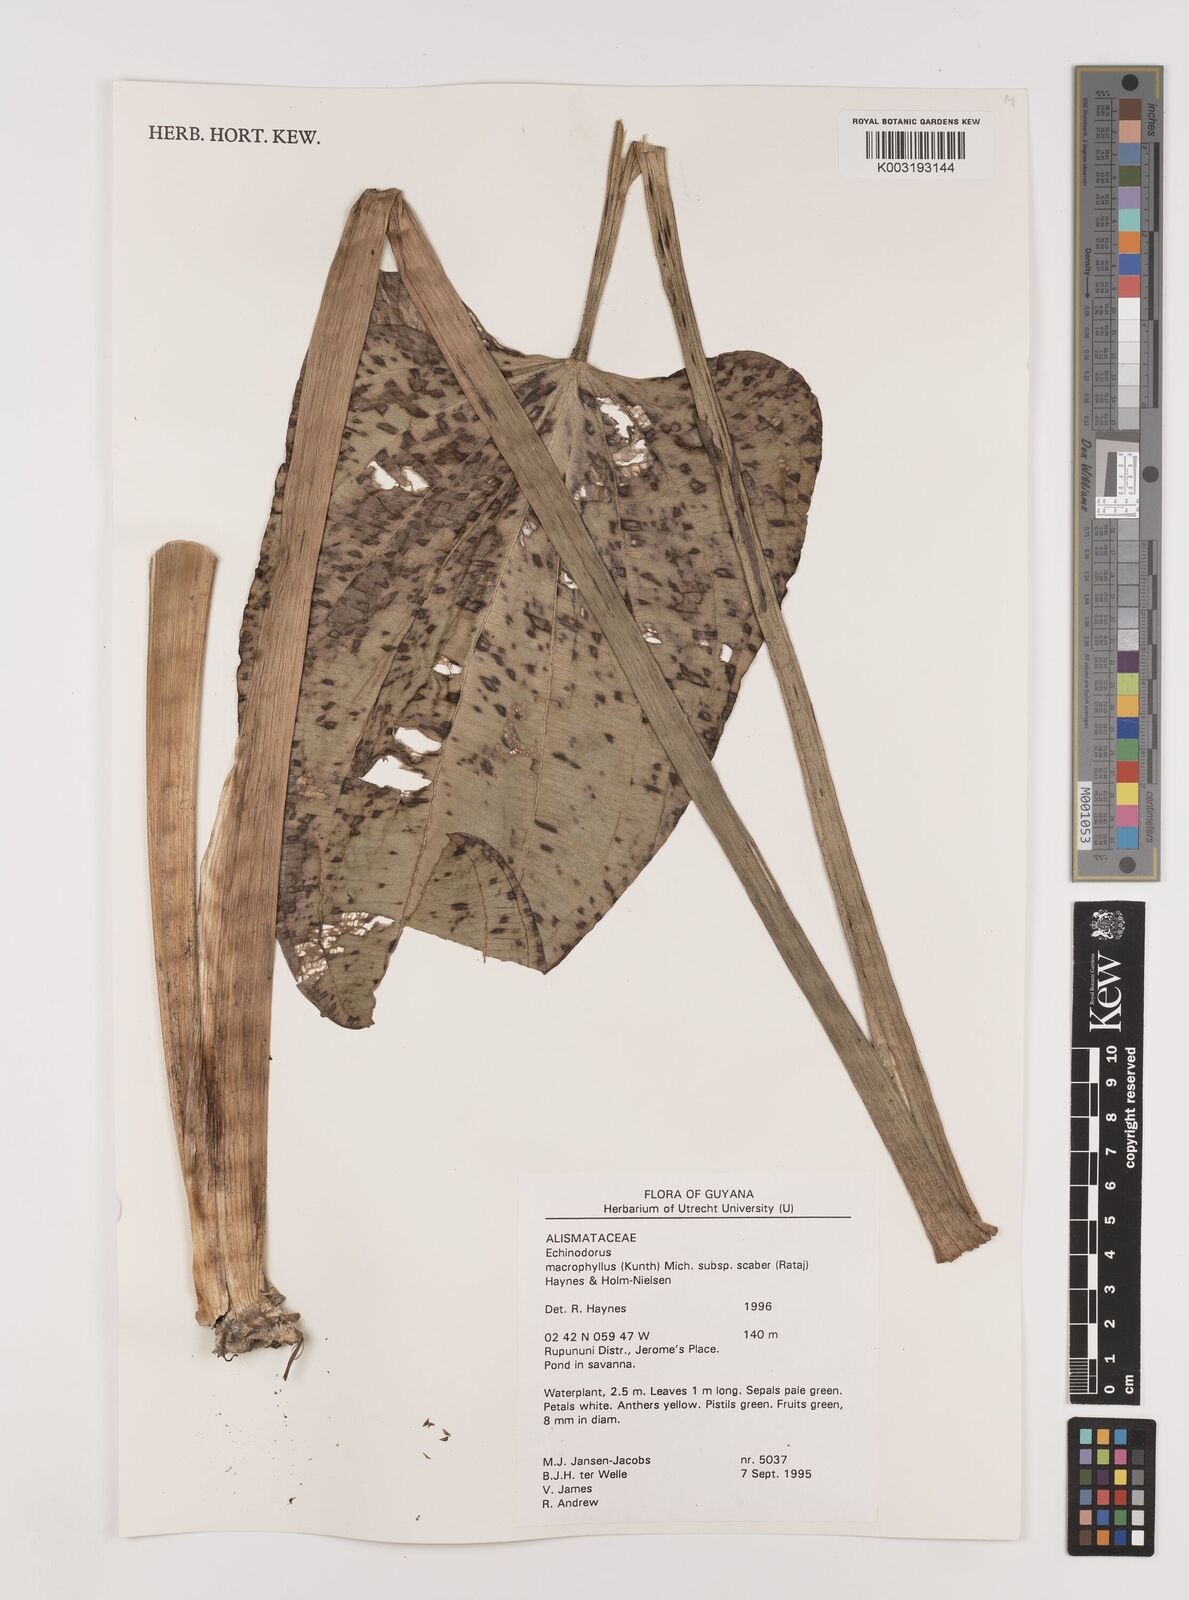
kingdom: Plantae
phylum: Tracheophyta
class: Liliopsida
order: Alismatales
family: Alismataceae
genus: Aquarius
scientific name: Aquarius macrophyllus
